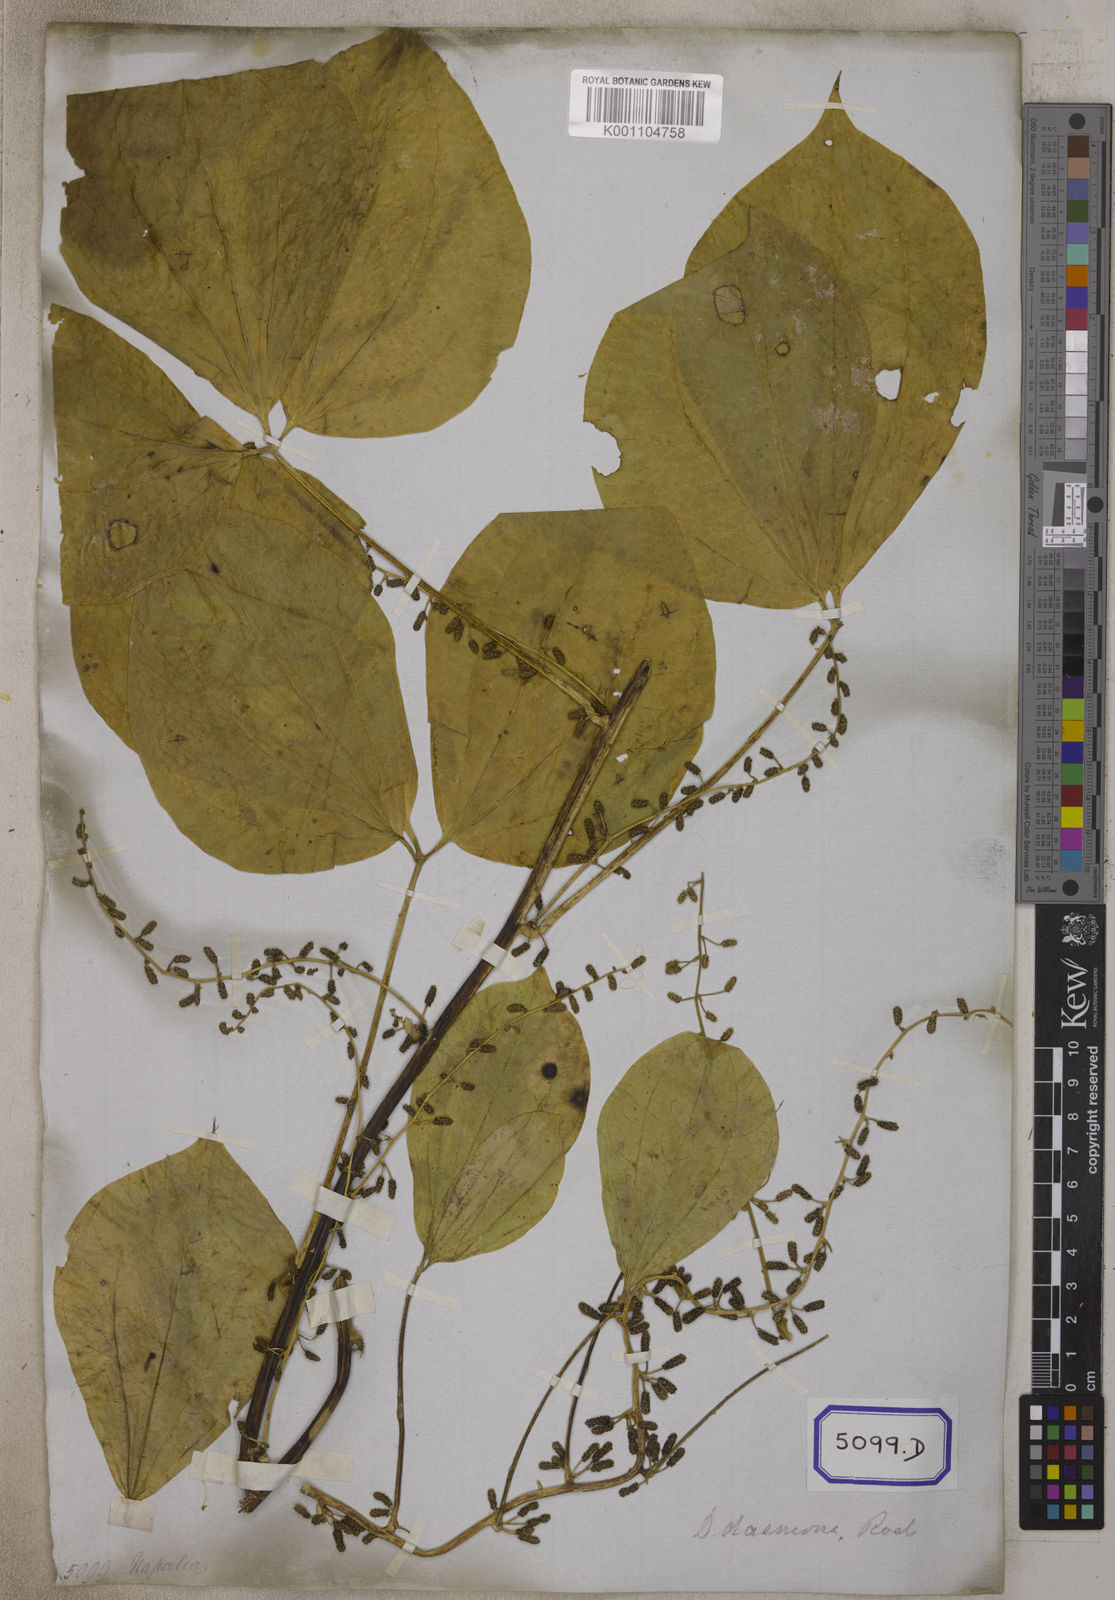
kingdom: Plantae
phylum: Tracheophyta
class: Liliopsida
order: Dioscoreales
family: Dioscoreaceae
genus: Dioscorea
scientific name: Dioscorea
